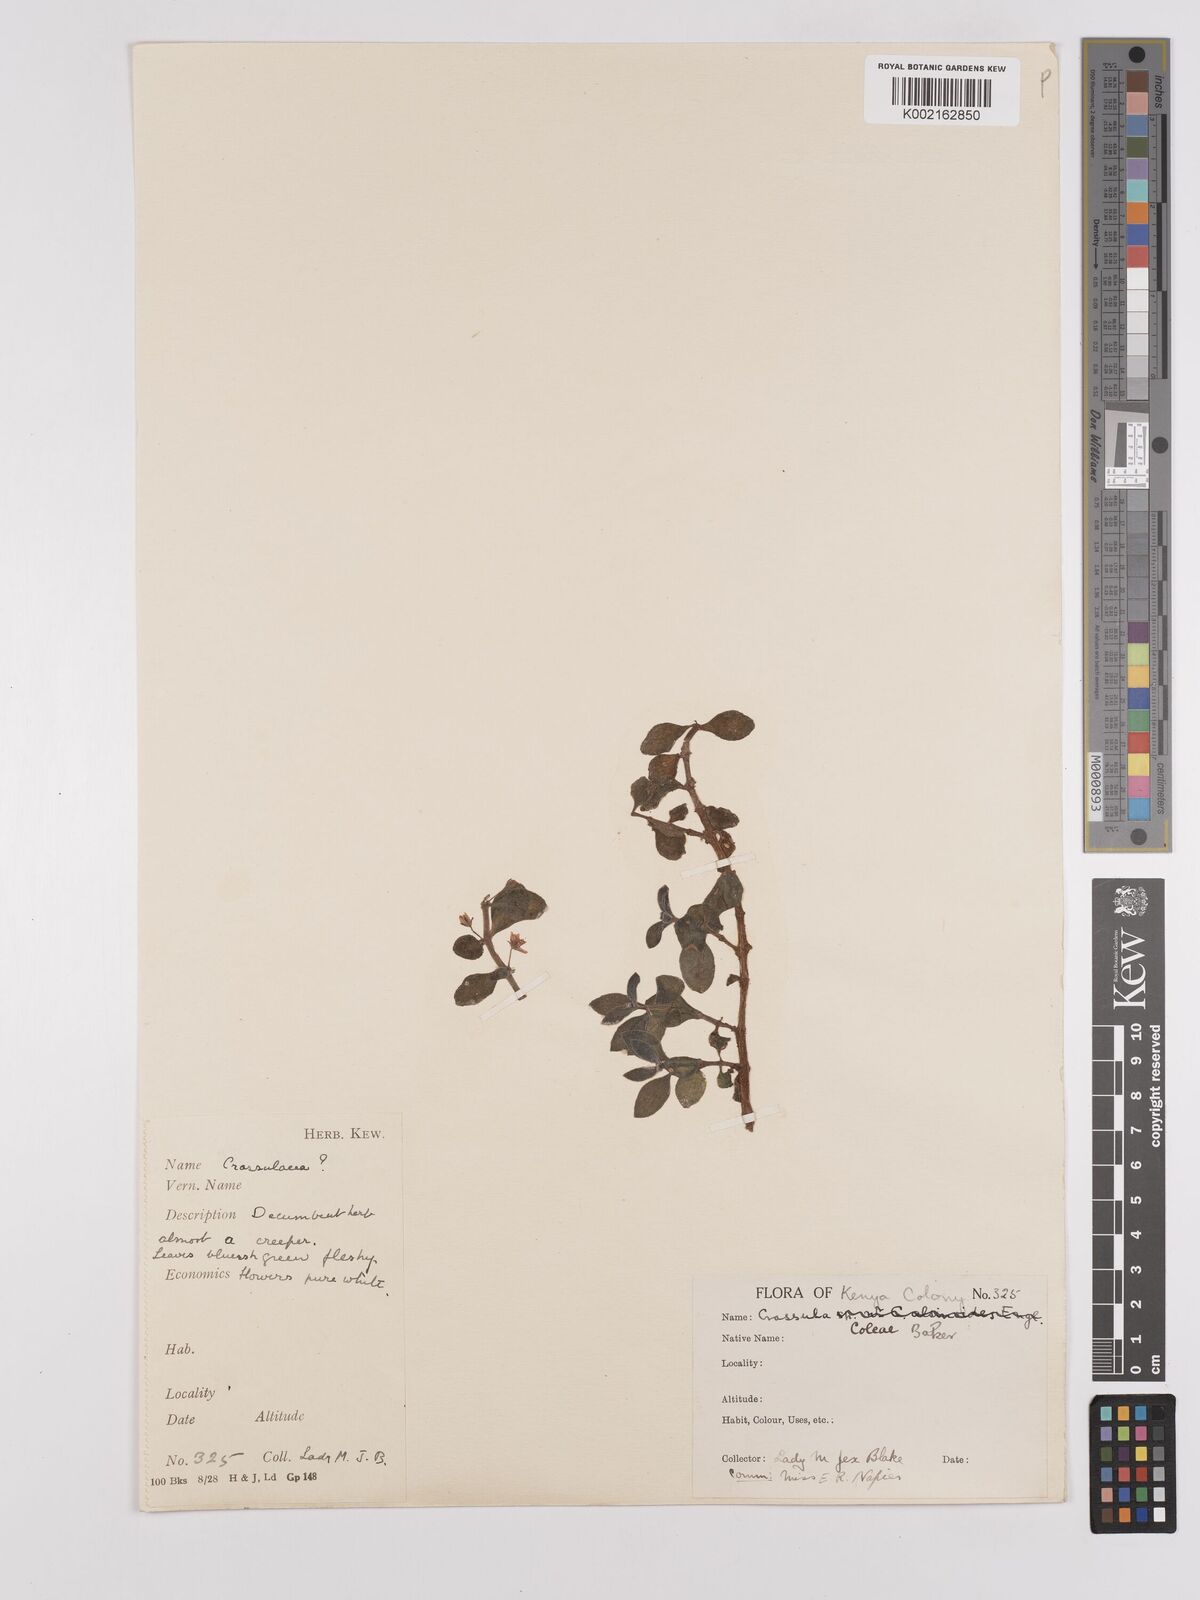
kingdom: Plantae
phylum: Tracheophyta
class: Magnoliopsida
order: Saxifragales
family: Crassulaceae
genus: Crassula
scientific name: Crassula volkensii
